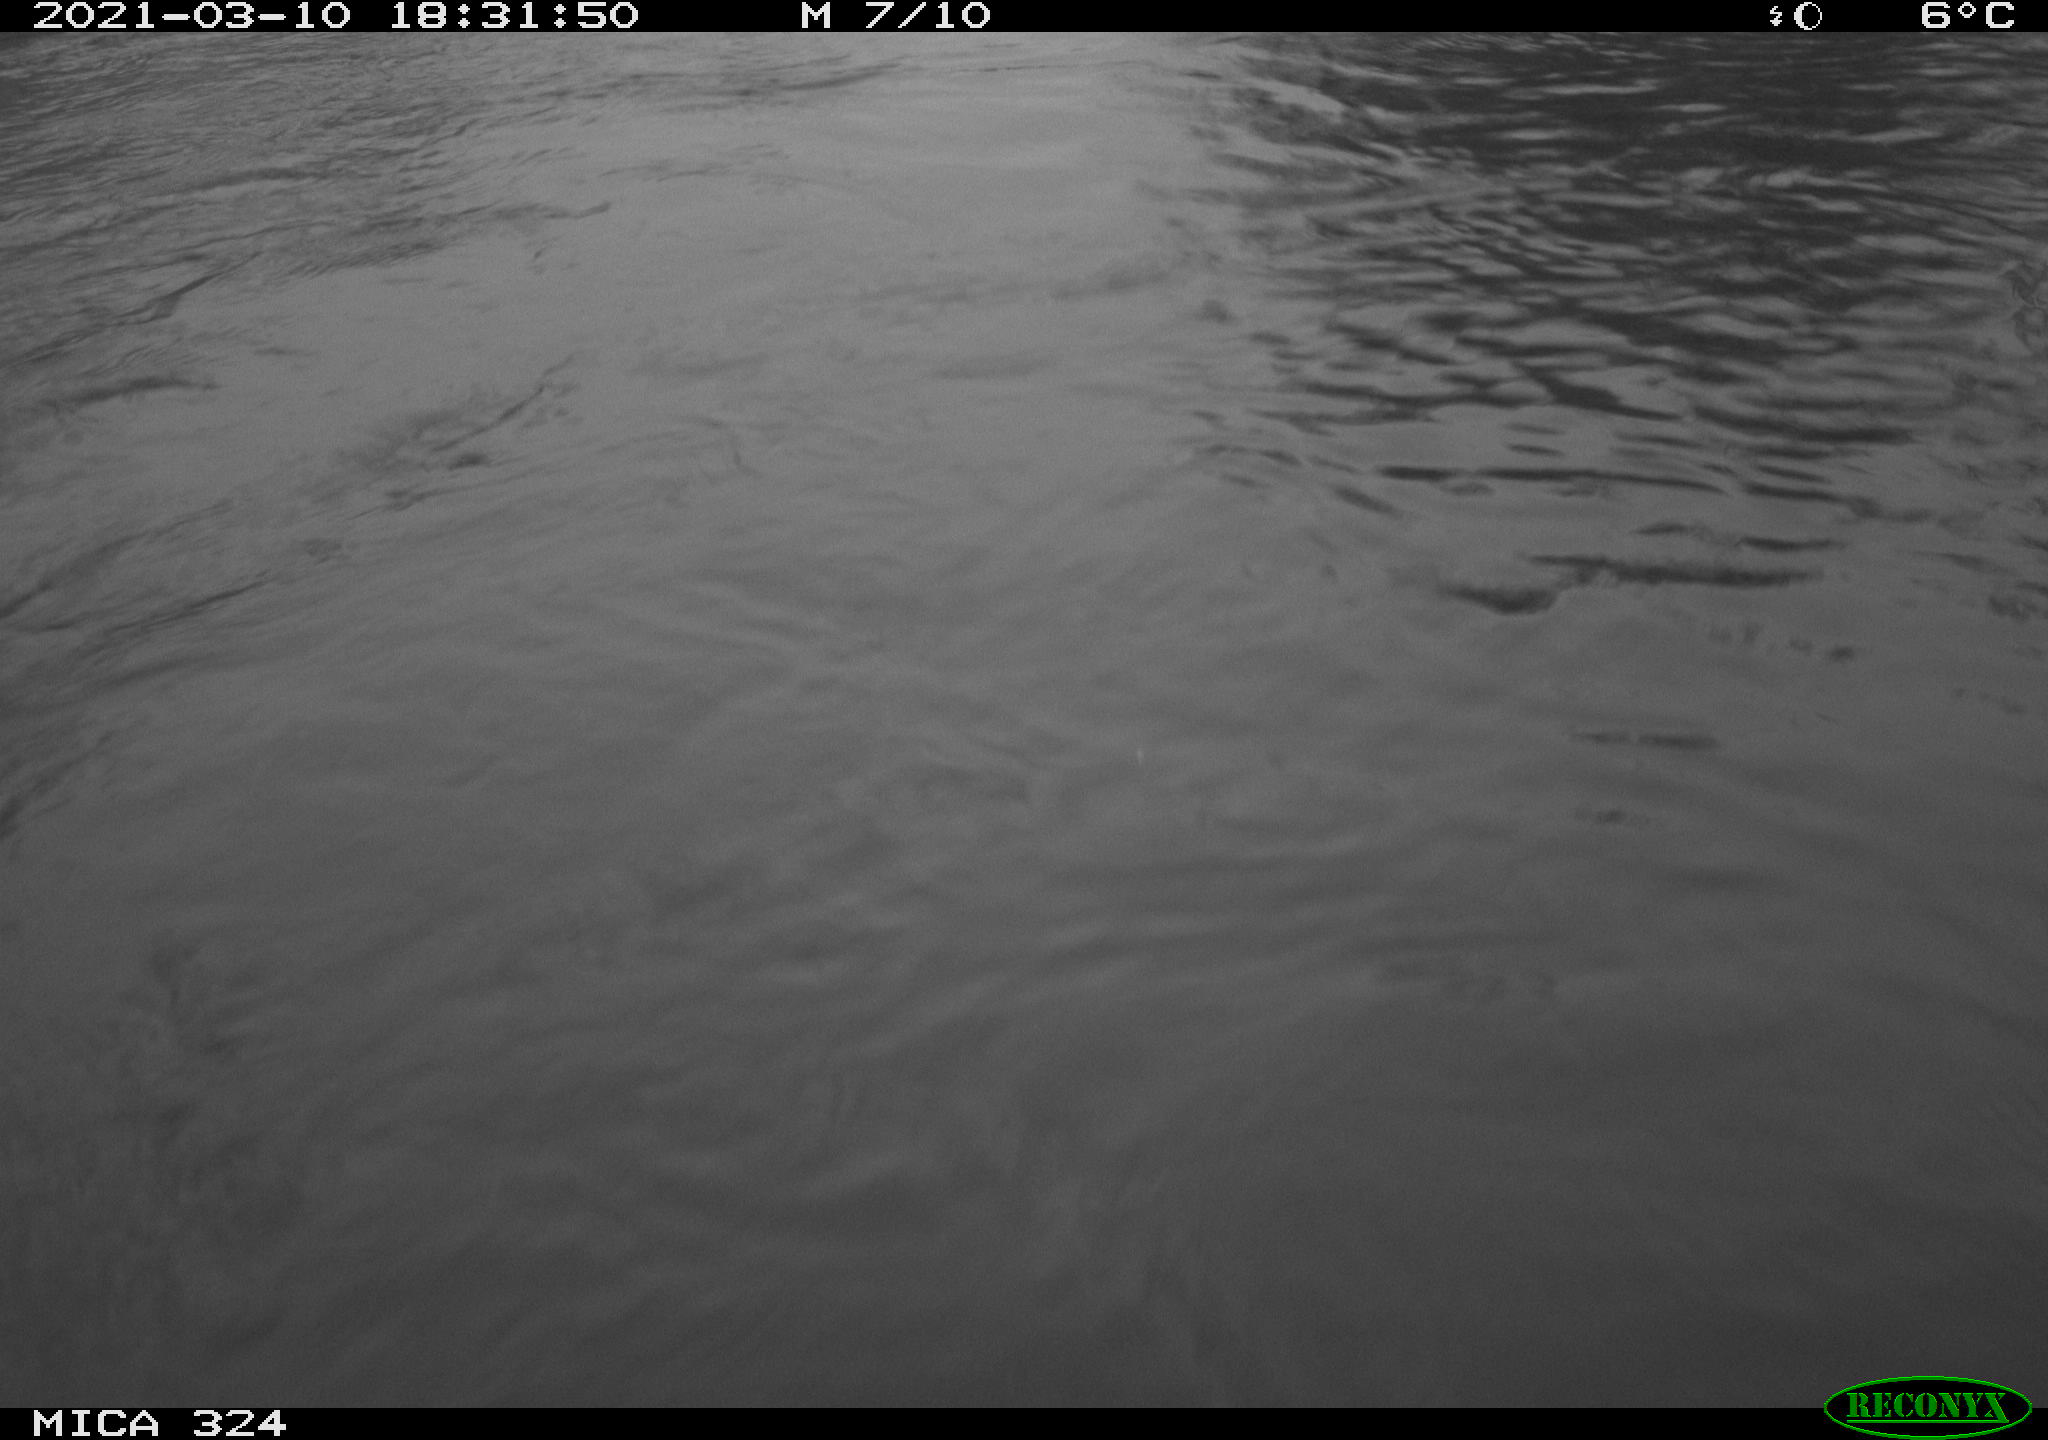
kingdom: Animalia
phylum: Chordata
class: Aves
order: Anseriformes
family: Anatidae
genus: Anas
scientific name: Anas platyrhynchos
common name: Mallard
